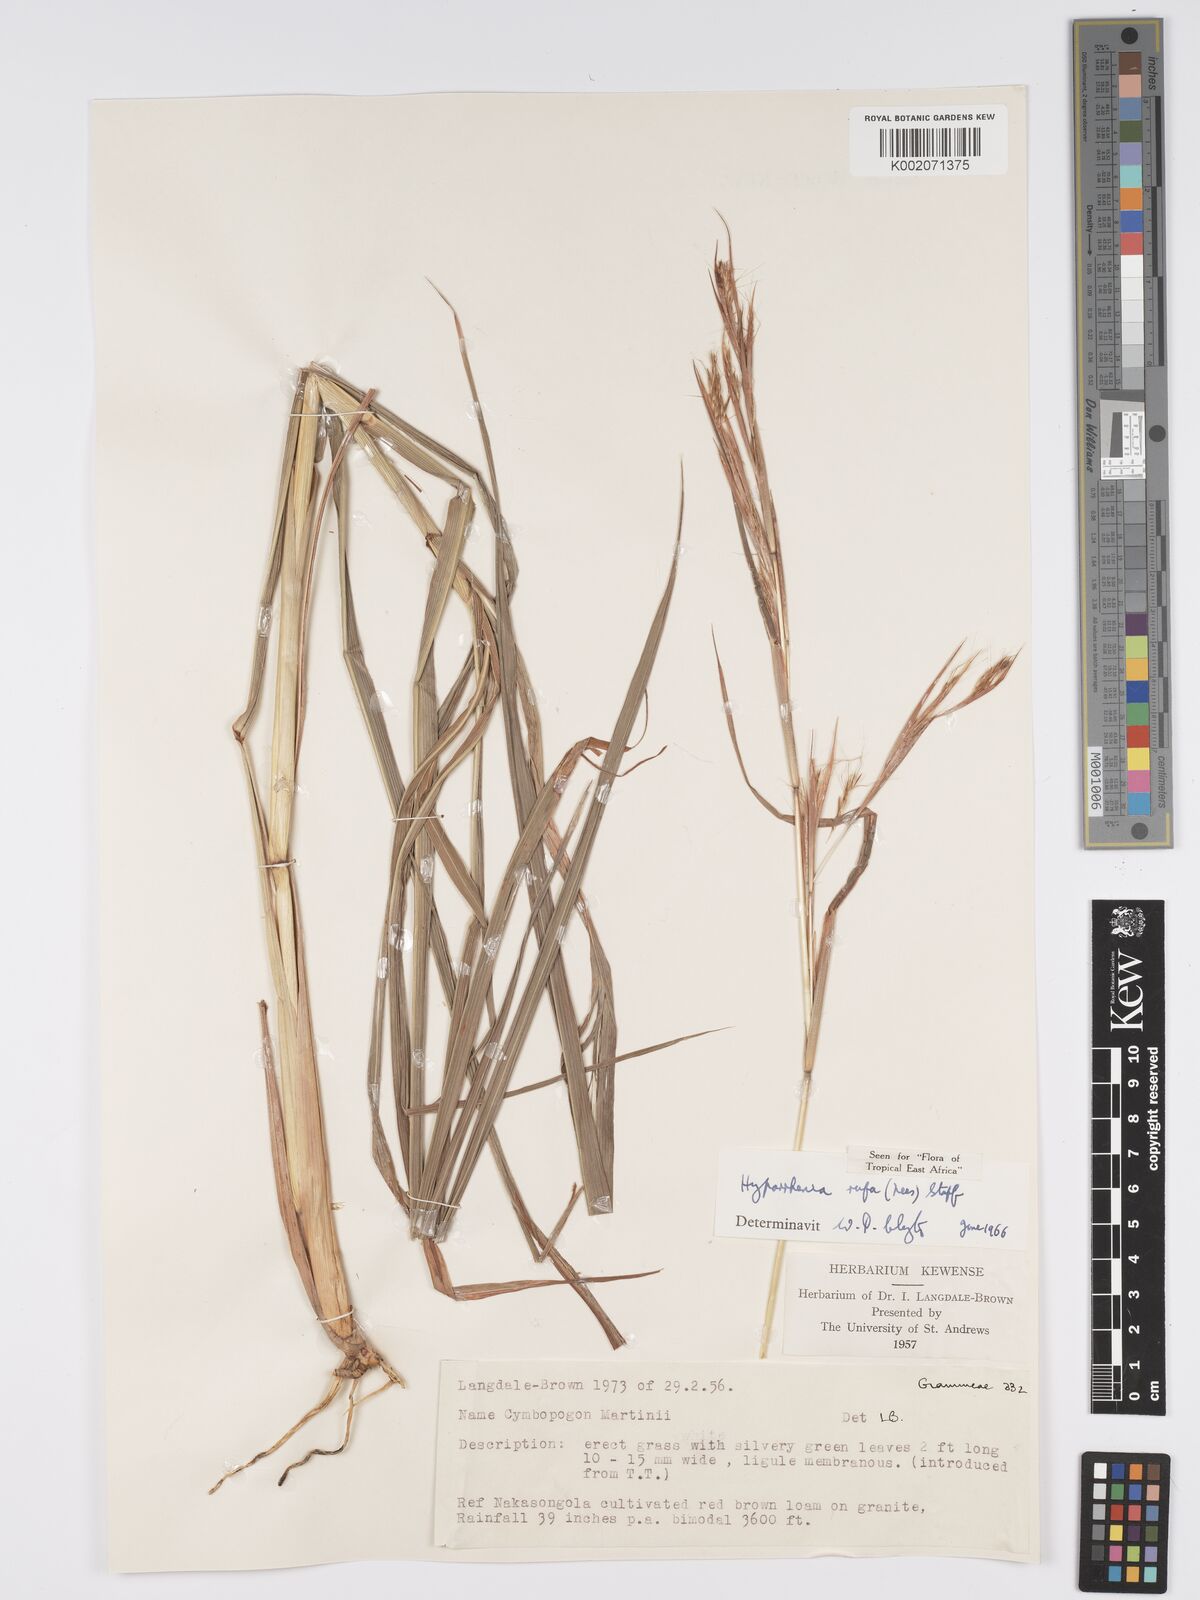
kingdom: Plantae
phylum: Tracheophyta
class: Liliopsida
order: Poales
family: Poaceae
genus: Hyparrhenia
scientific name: Hyparrhenia rufa
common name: Jaraguagrass
